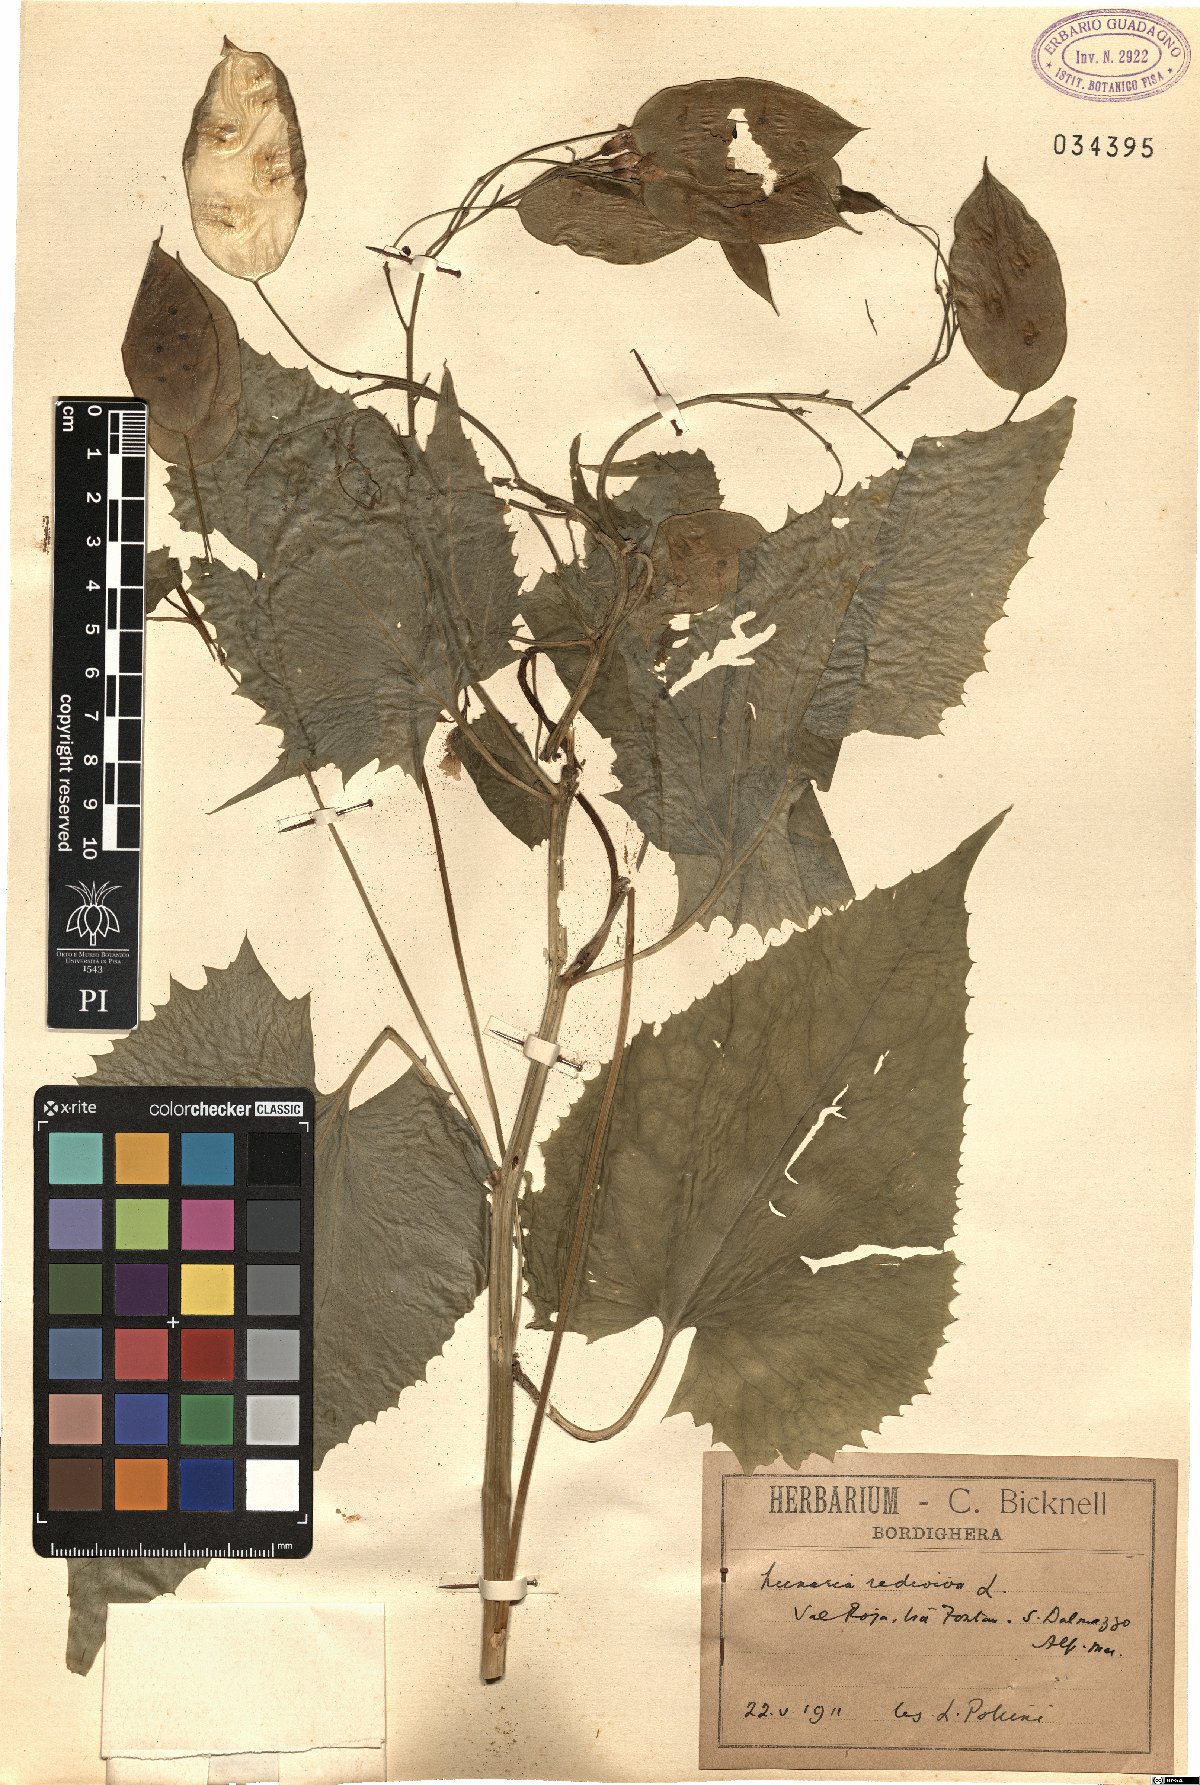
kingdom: Plantae
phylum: Tracheophyta
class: Magnoliopsida
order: Brassicales
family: Brassicaceae
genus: Lunaria
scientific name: Lunaria rediviva
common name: Perennial honesty
